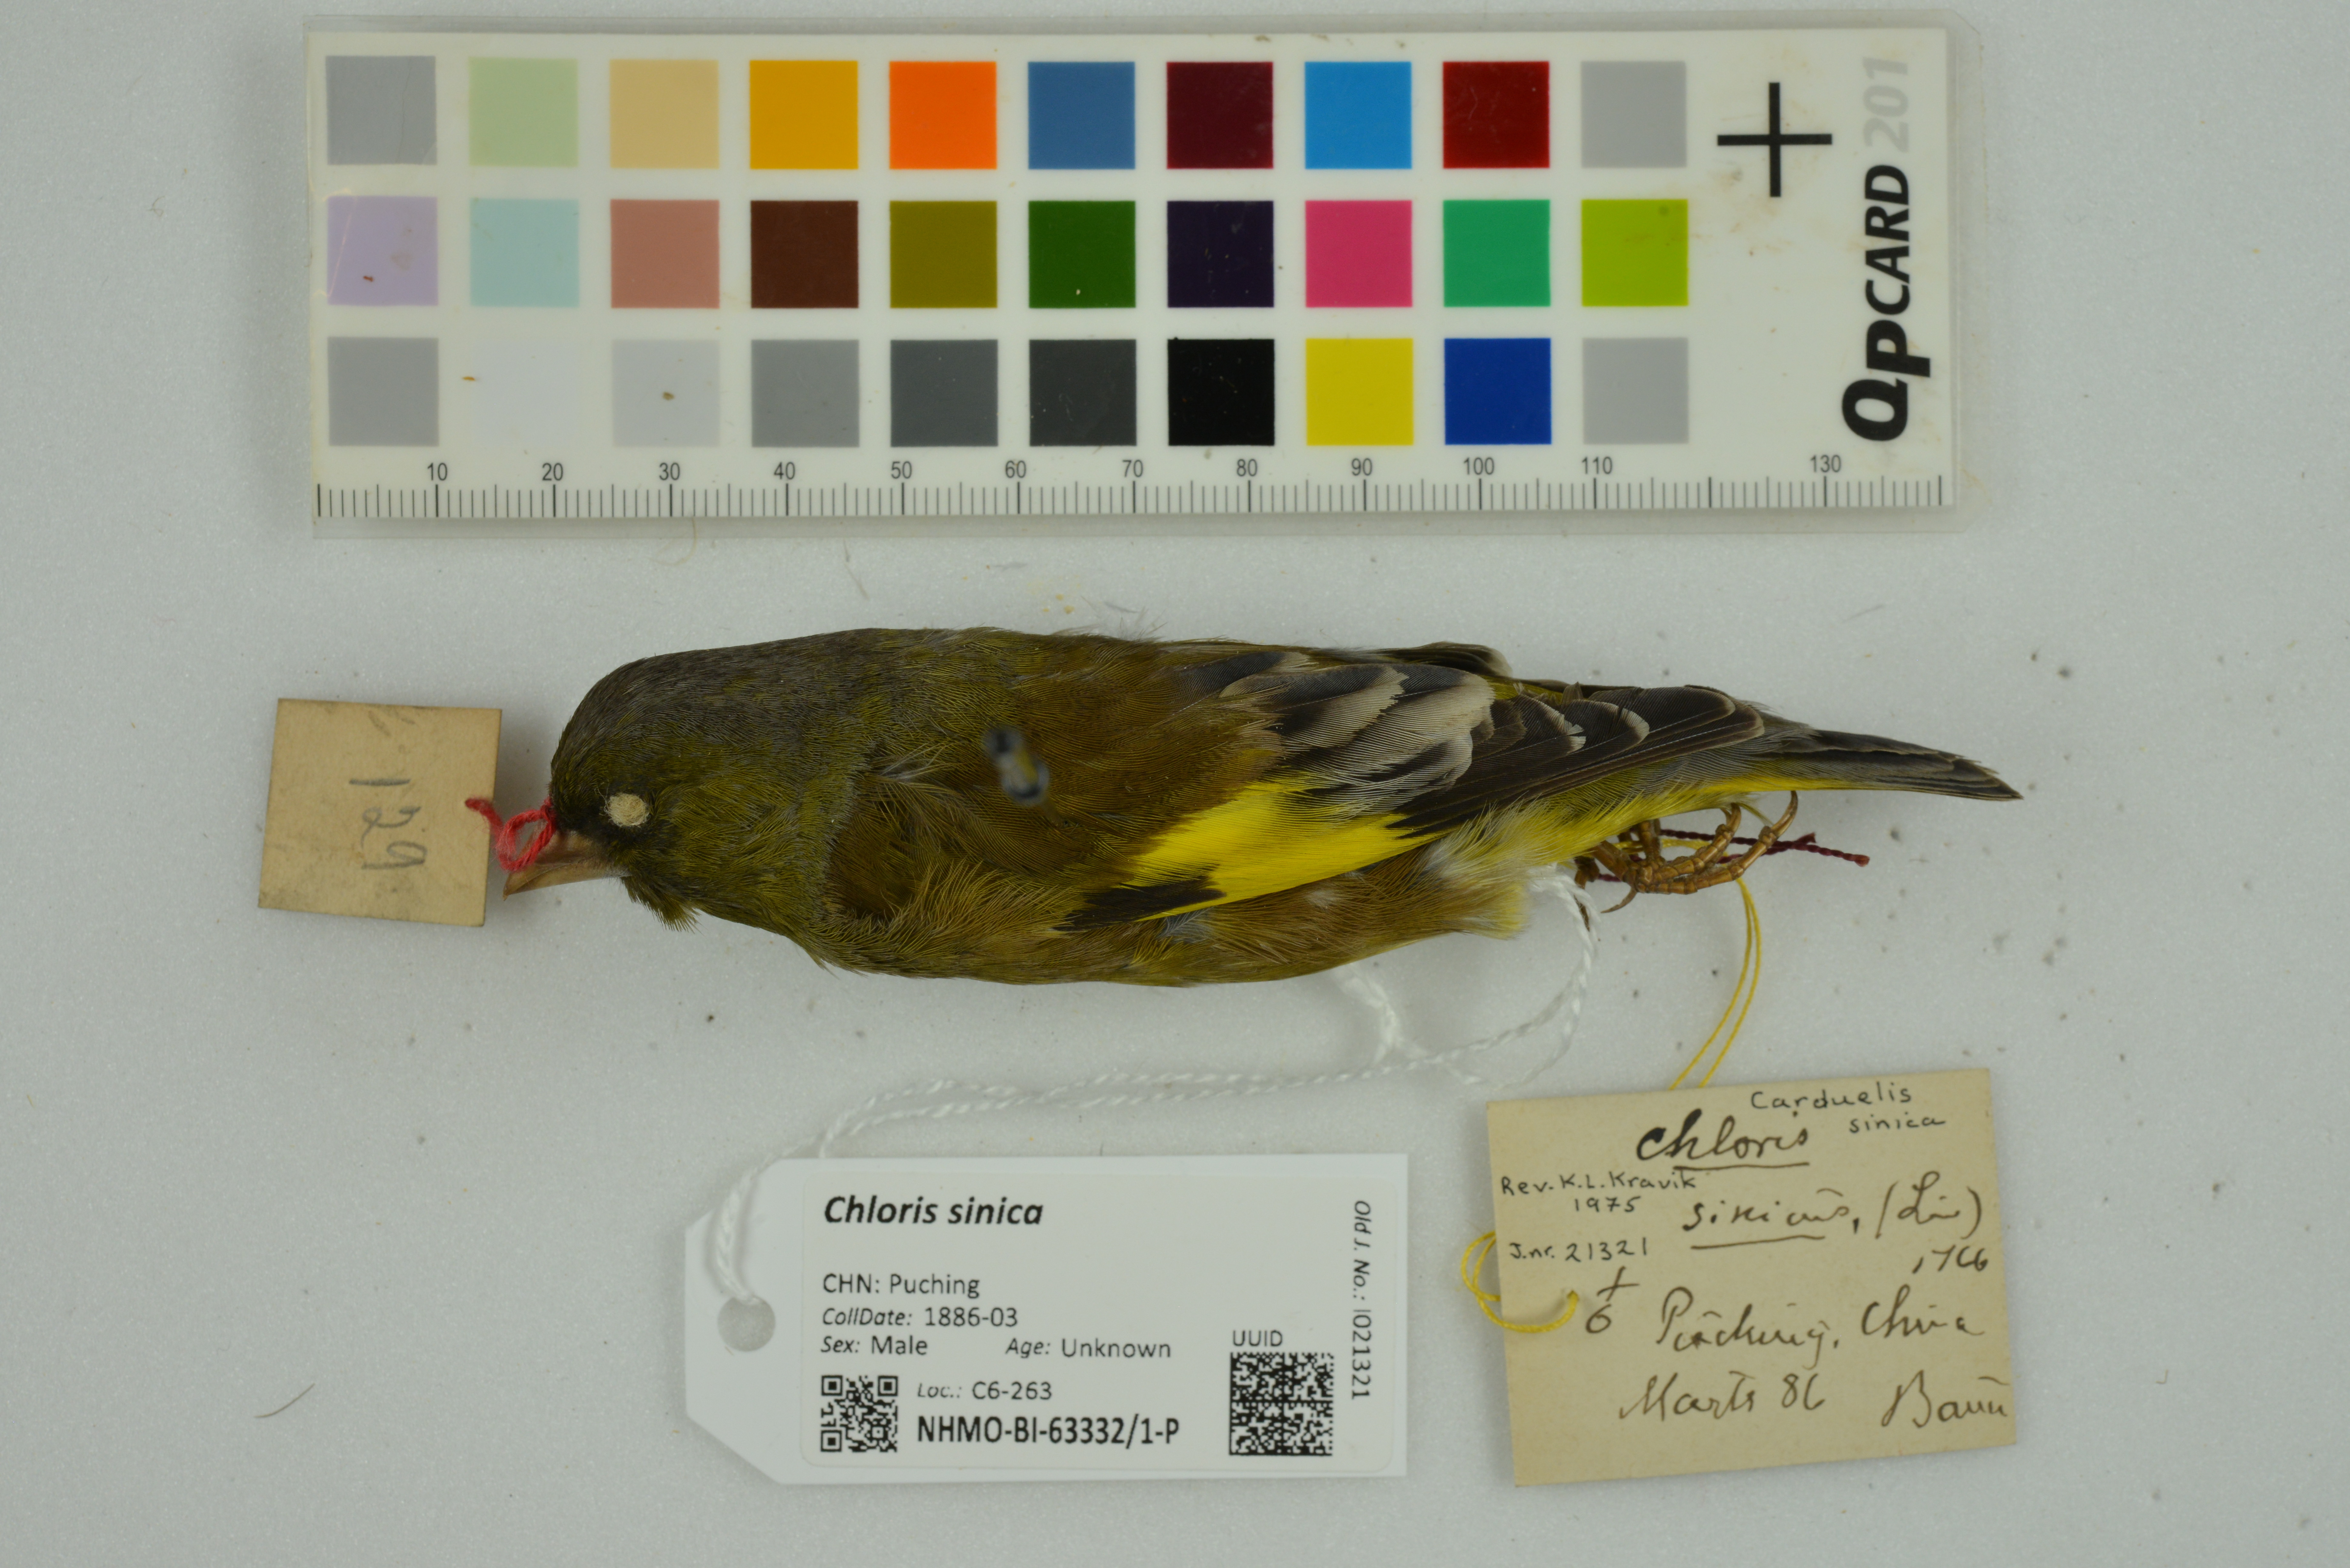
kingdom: Plantae
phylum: Tracheophyta
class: Liliopsida
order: Poales
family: Poaceae
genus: Chloris
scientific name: Chloris sinica
